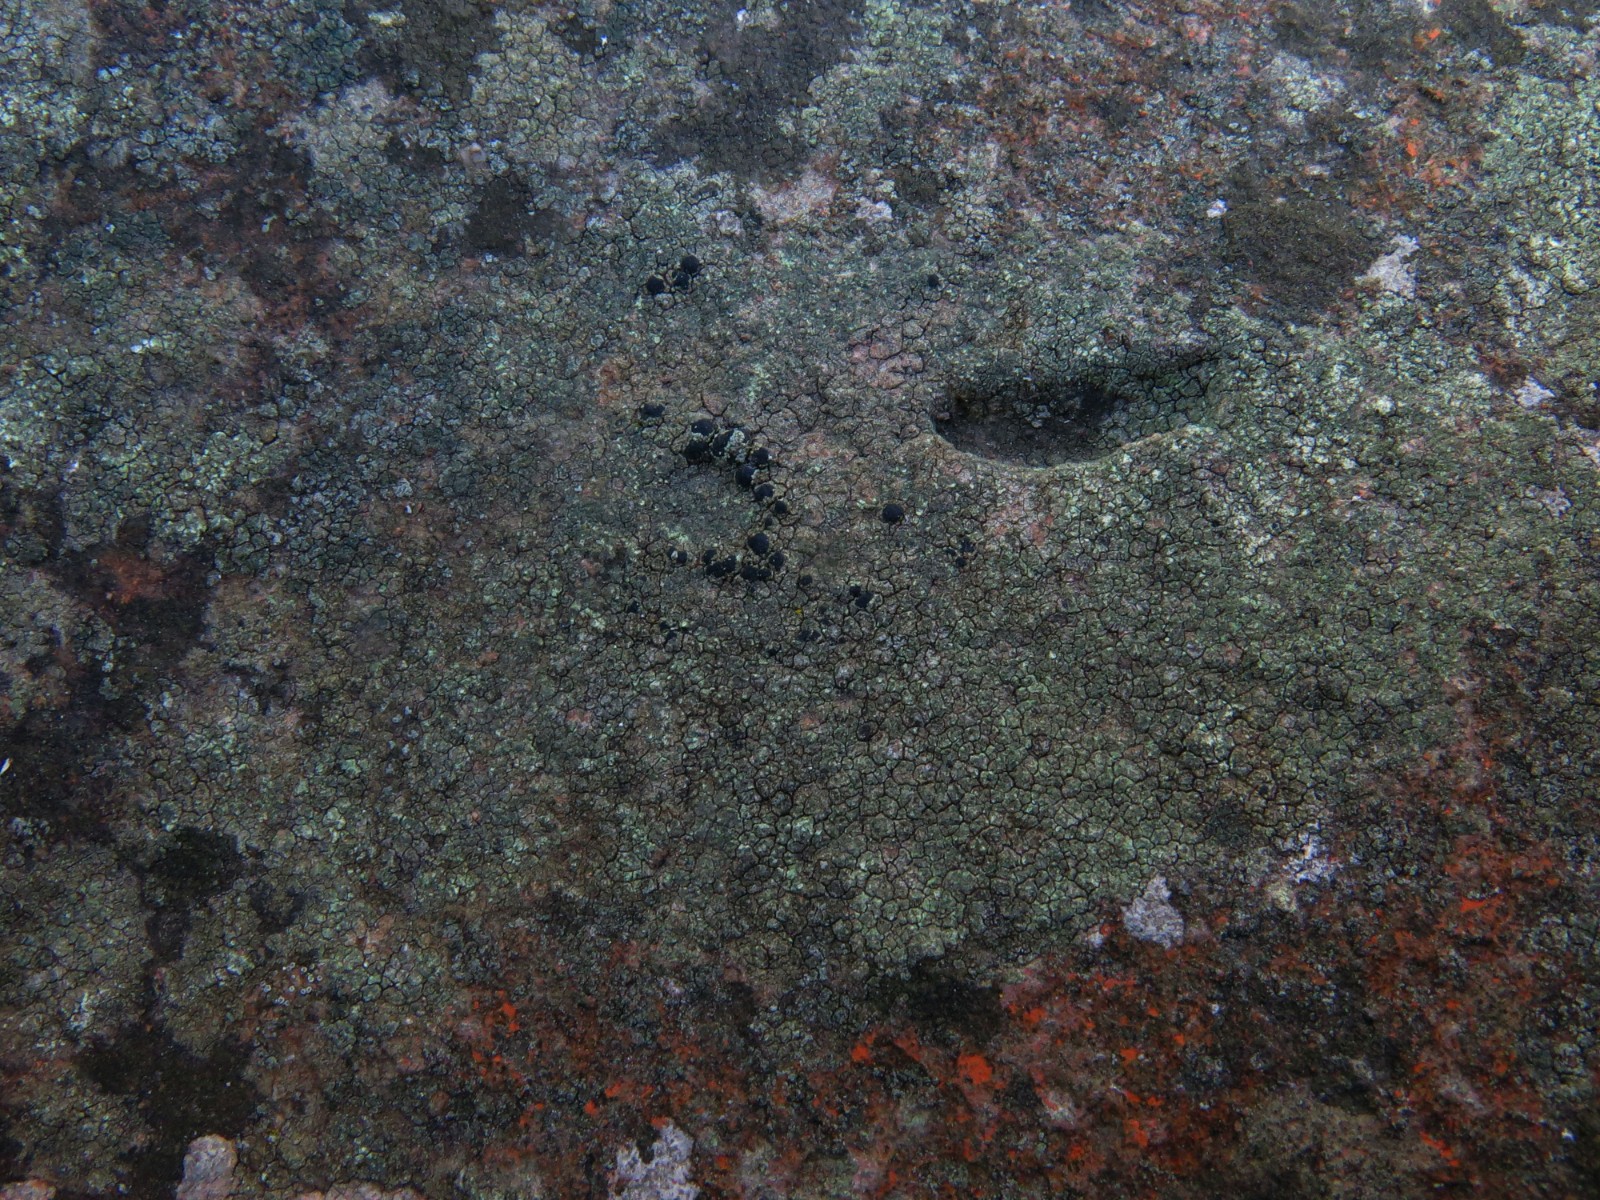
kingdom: Fungi
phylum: Ascomycota
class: Lecanoromycetes
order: Lecanorales
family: Lecanoraceae
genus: Lecidella
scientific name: Lecidella scabra
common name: skurvet skivelav
